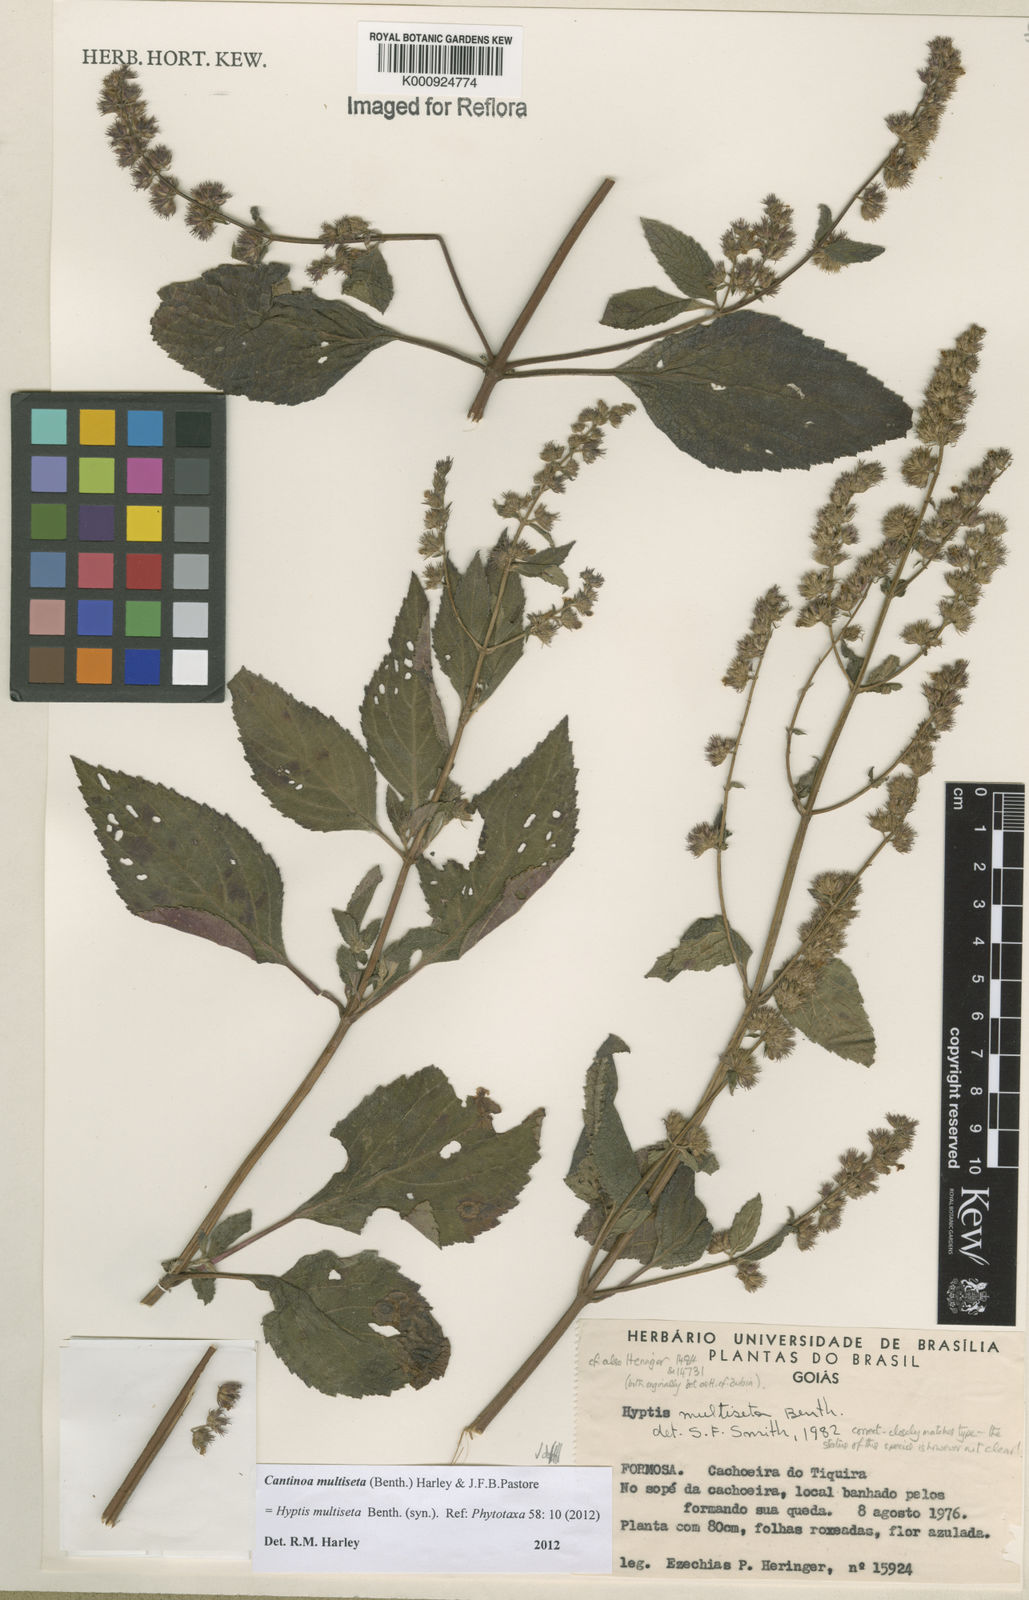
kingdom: Plantae
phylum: Tracheophyta
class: Magnoliopsida
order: Lamiales
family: Lamiaceae
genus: Cantinoa
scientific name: Cantinoa multiseta
